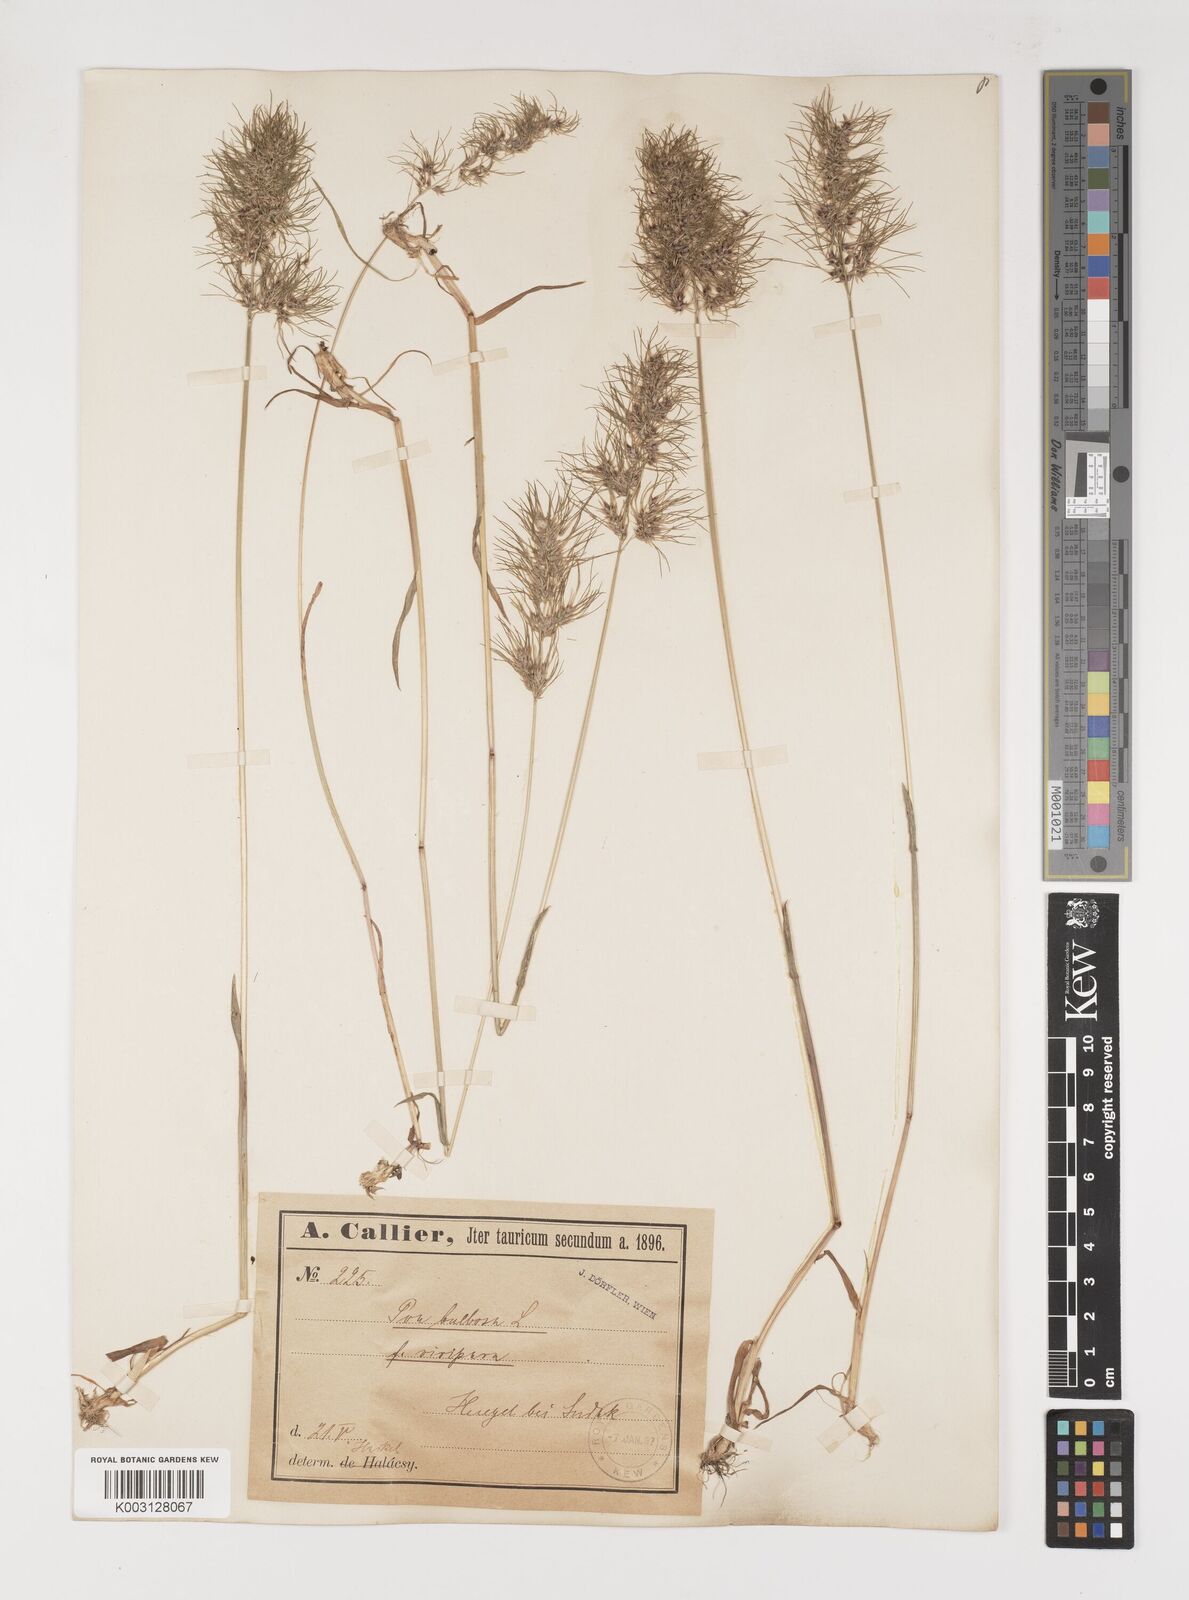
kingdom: Plantae
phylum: Tracheophyta
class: Liliopsida
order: Poales
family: Poaceae
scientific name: Poaceae
